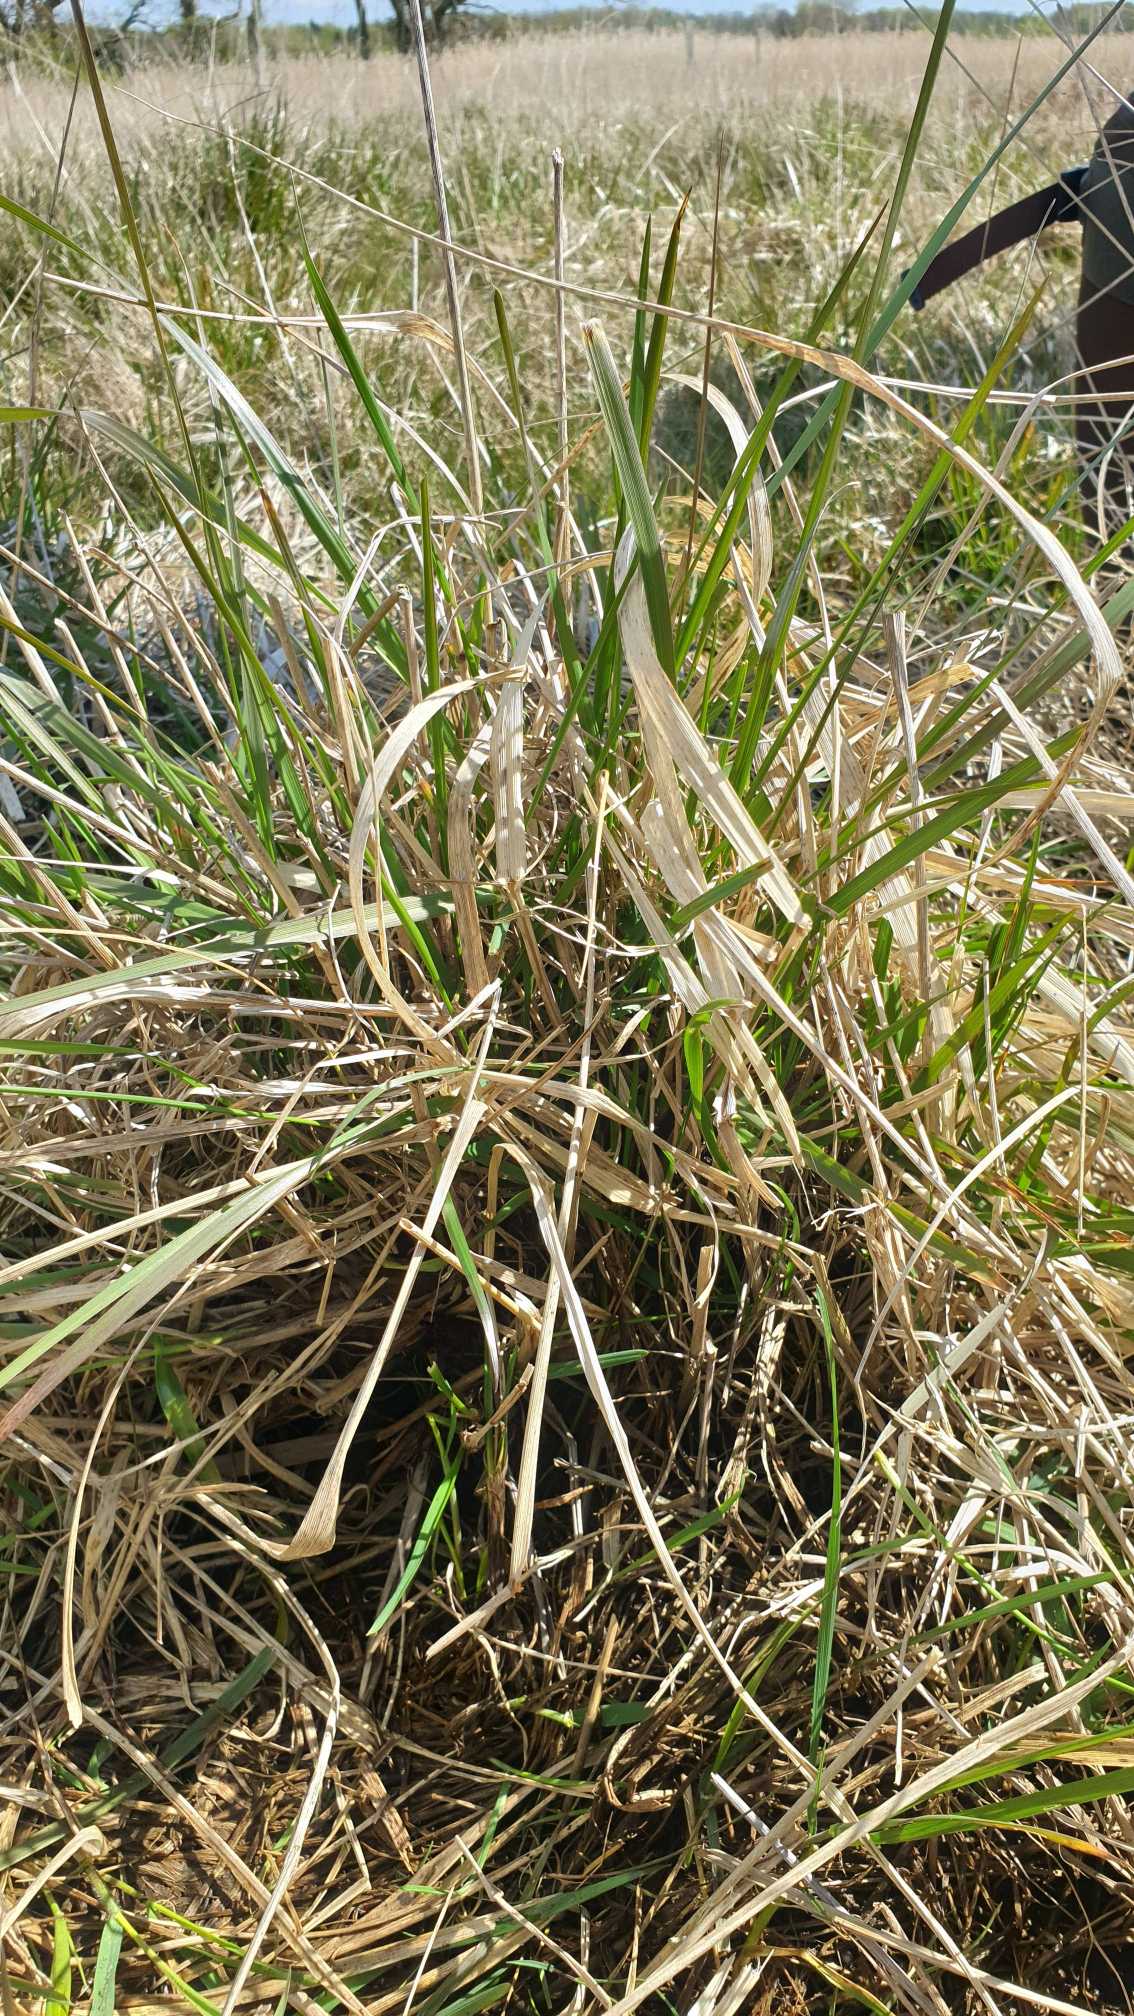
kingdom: Plantae
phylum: Tracheophyta
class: Liliopsida
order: Poales
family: Poaceae
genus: Lolium
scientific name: Lolium arundinaceum
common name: Strand-svingel
